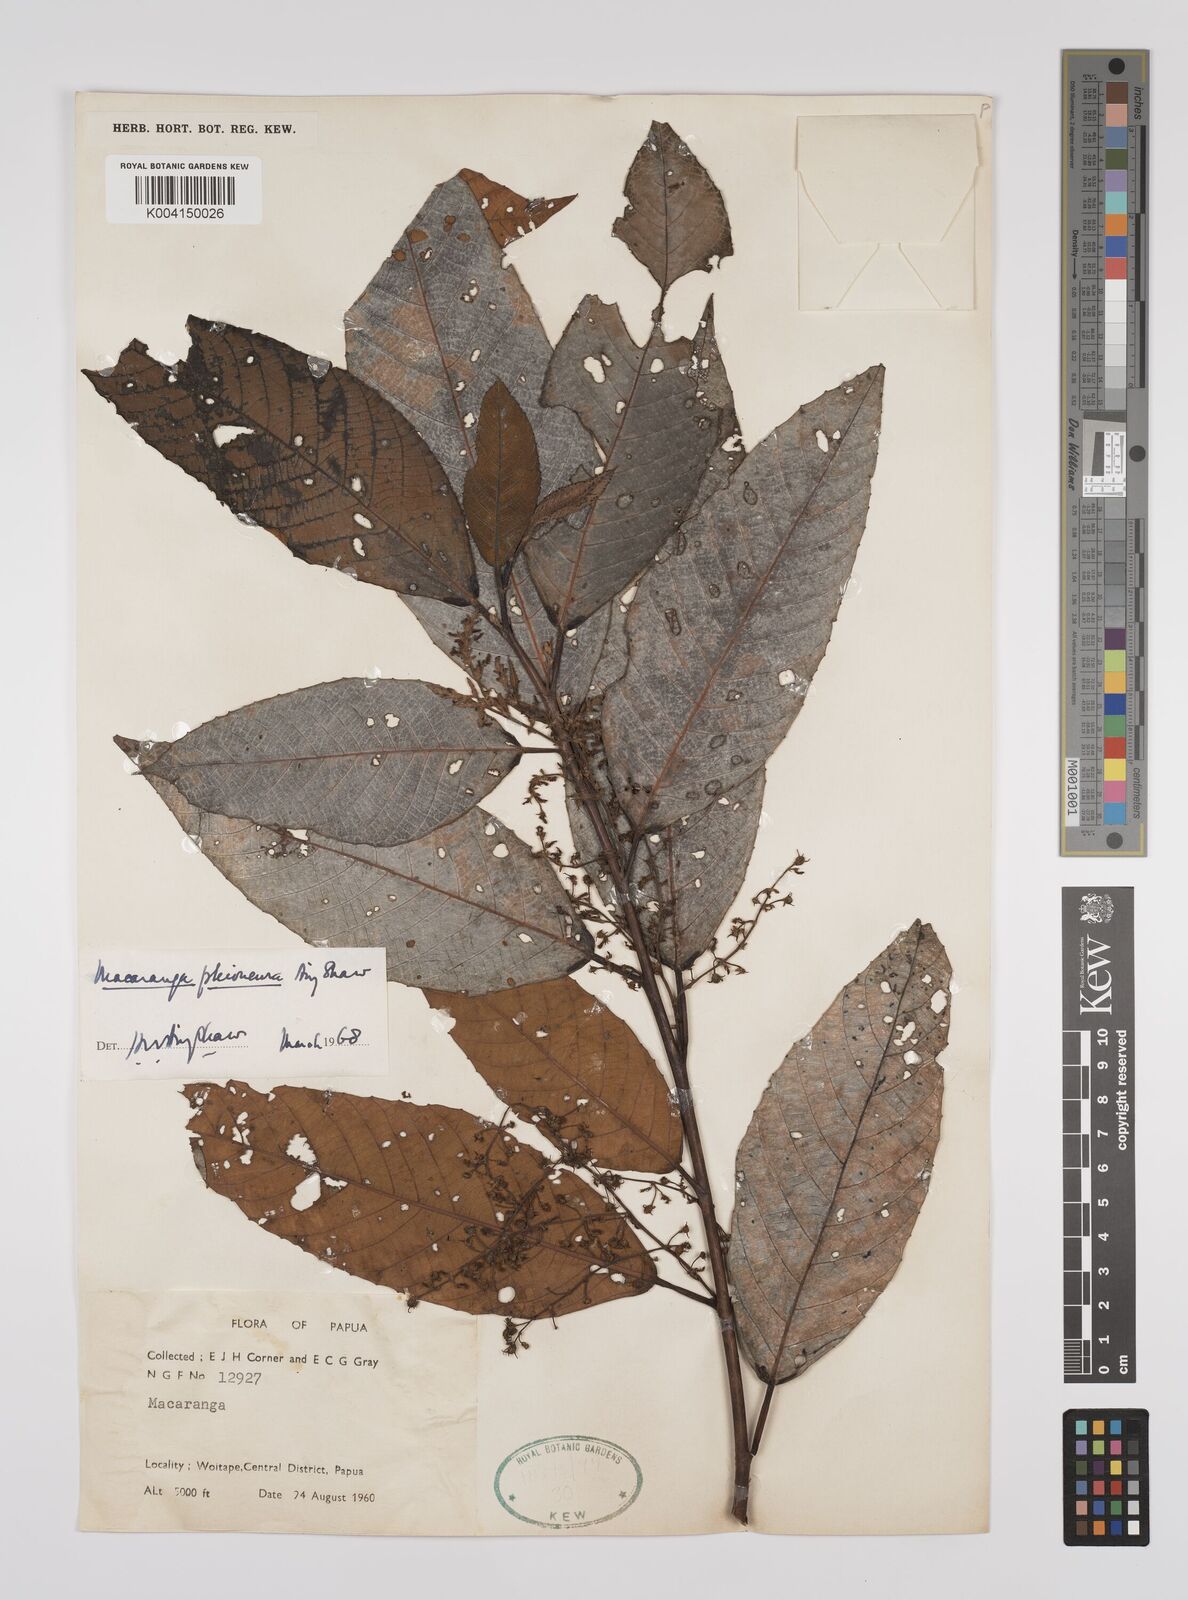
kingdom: Plantae
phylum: Tracheophyta
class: Magnoliopsida
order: Malpighiales
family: Euphorbiaceae
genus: Macaranga
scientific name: Macaranga pleioneura
